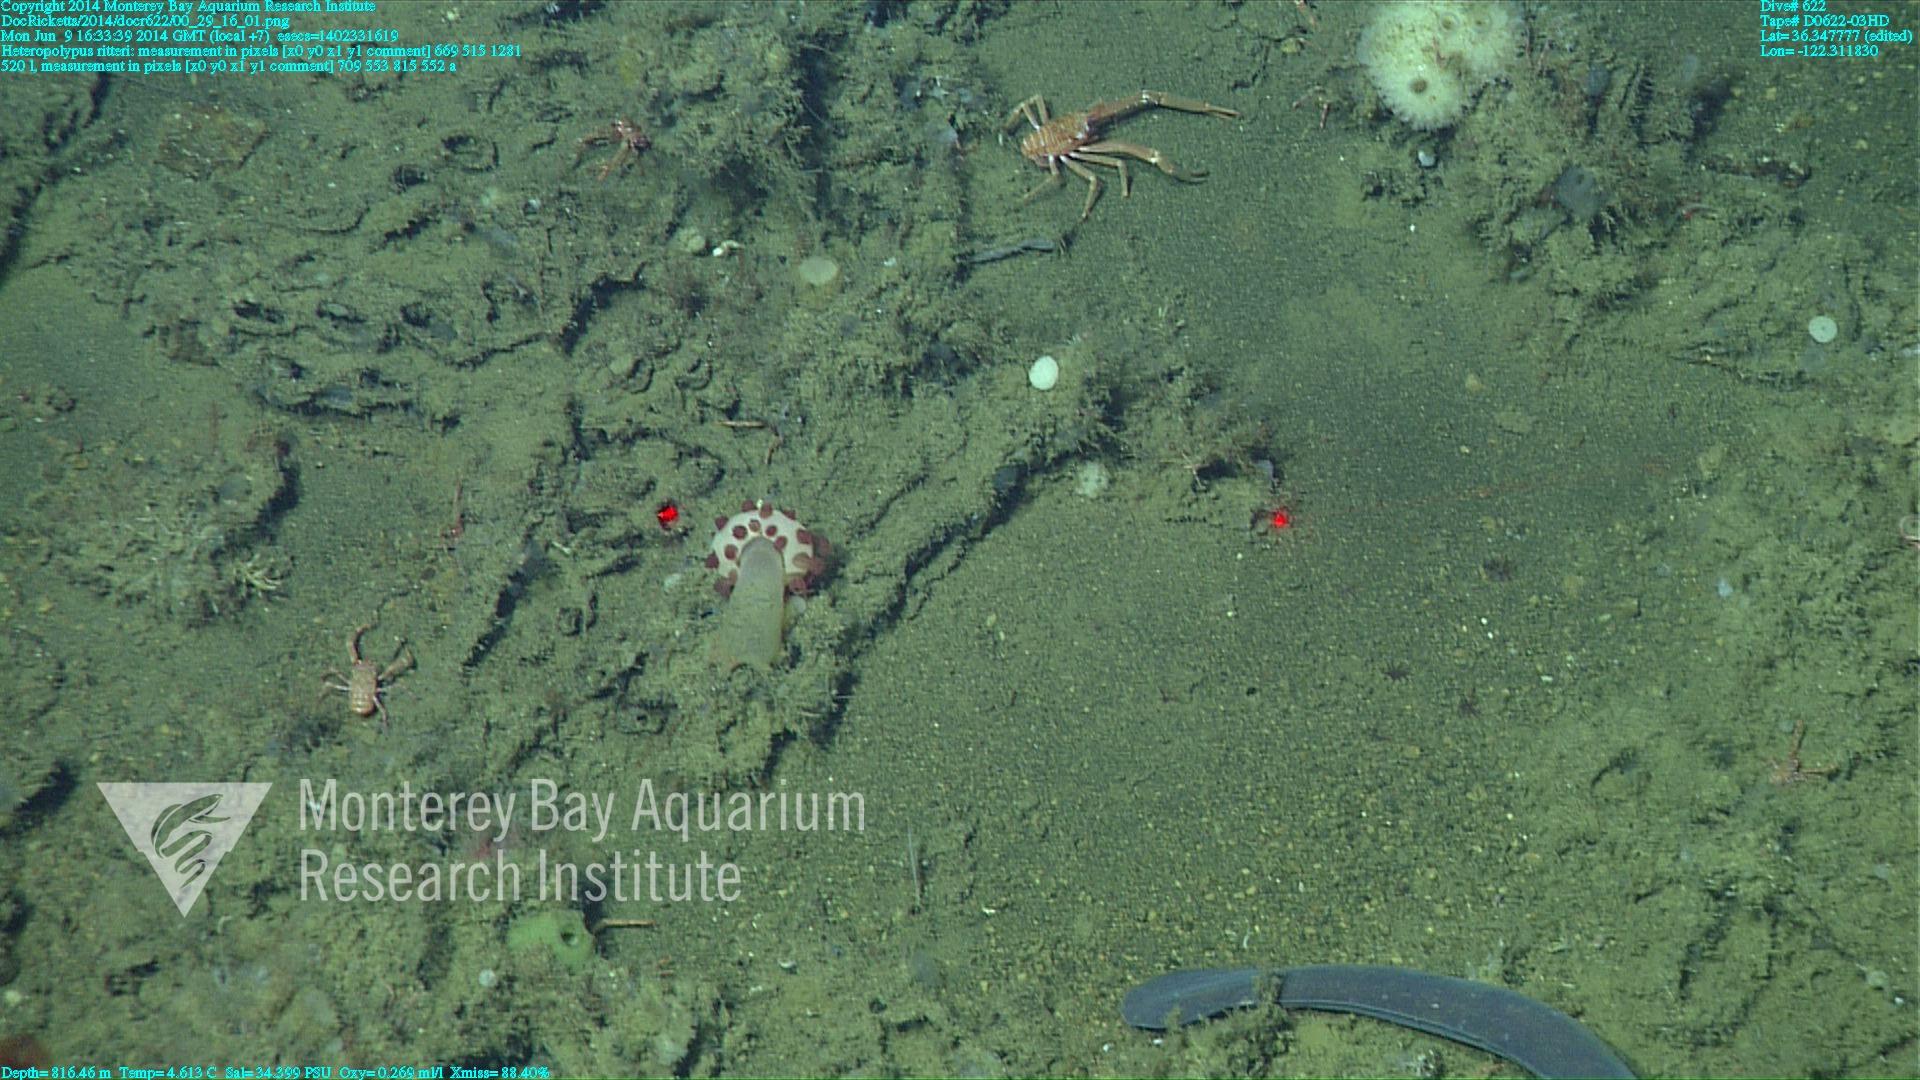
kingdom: Animalia
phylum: Cnidaria
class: Anthozoa
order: Scleralcyonacea
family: Coralliidae
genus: Heteropolypus
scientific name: Heteropolypus ritteri
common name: Ritter's soft coral
